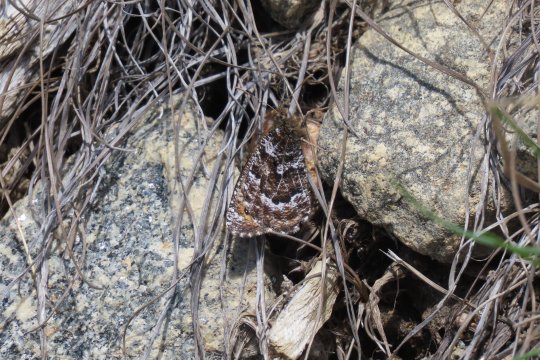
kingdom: Animalia
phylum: Arthropoda
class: Insecta
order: Lepidoptera
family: Nymphalidae
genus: Oeneis
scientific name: Oeneis chryxus
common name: Chryxus Arctic
